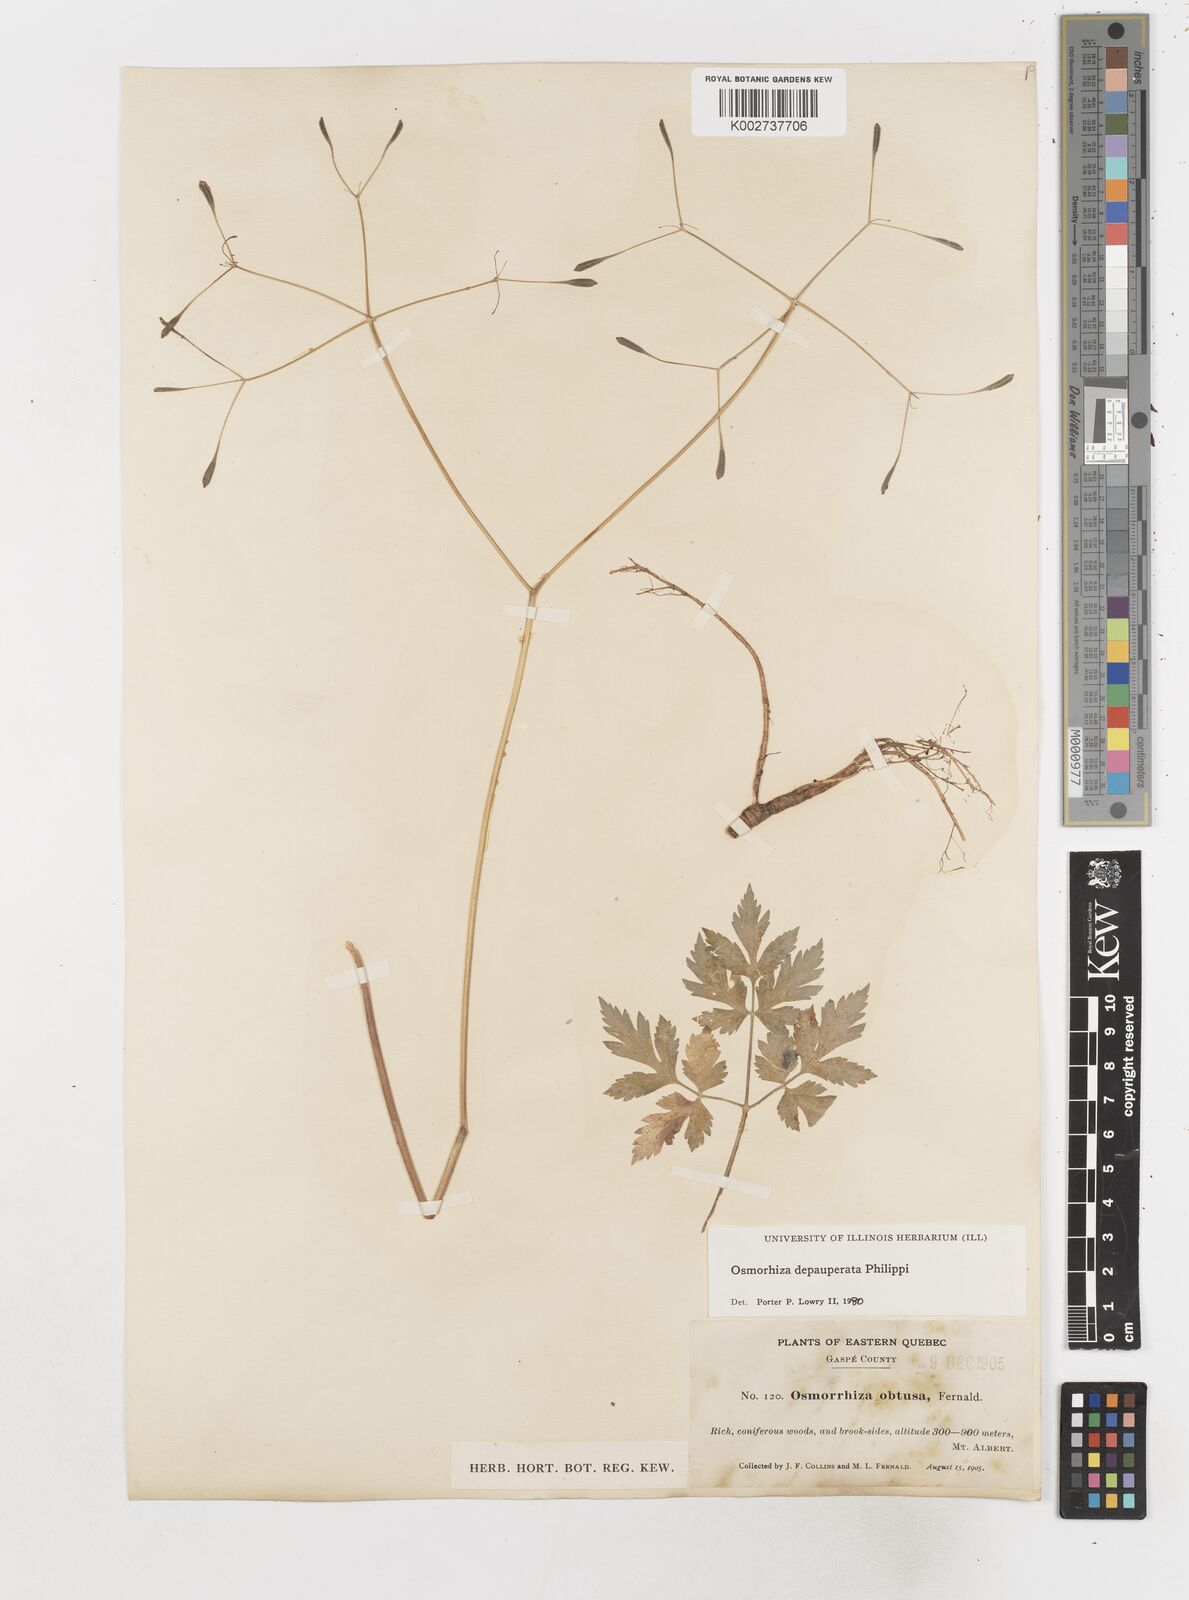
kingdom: Plantae
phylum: Tracheophyta
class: Magnoliopsida
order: Apiales
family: Apiaceae
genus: Osmorhiza
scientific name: Osmorhiza depauperata
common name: Blunt sweet cicely
